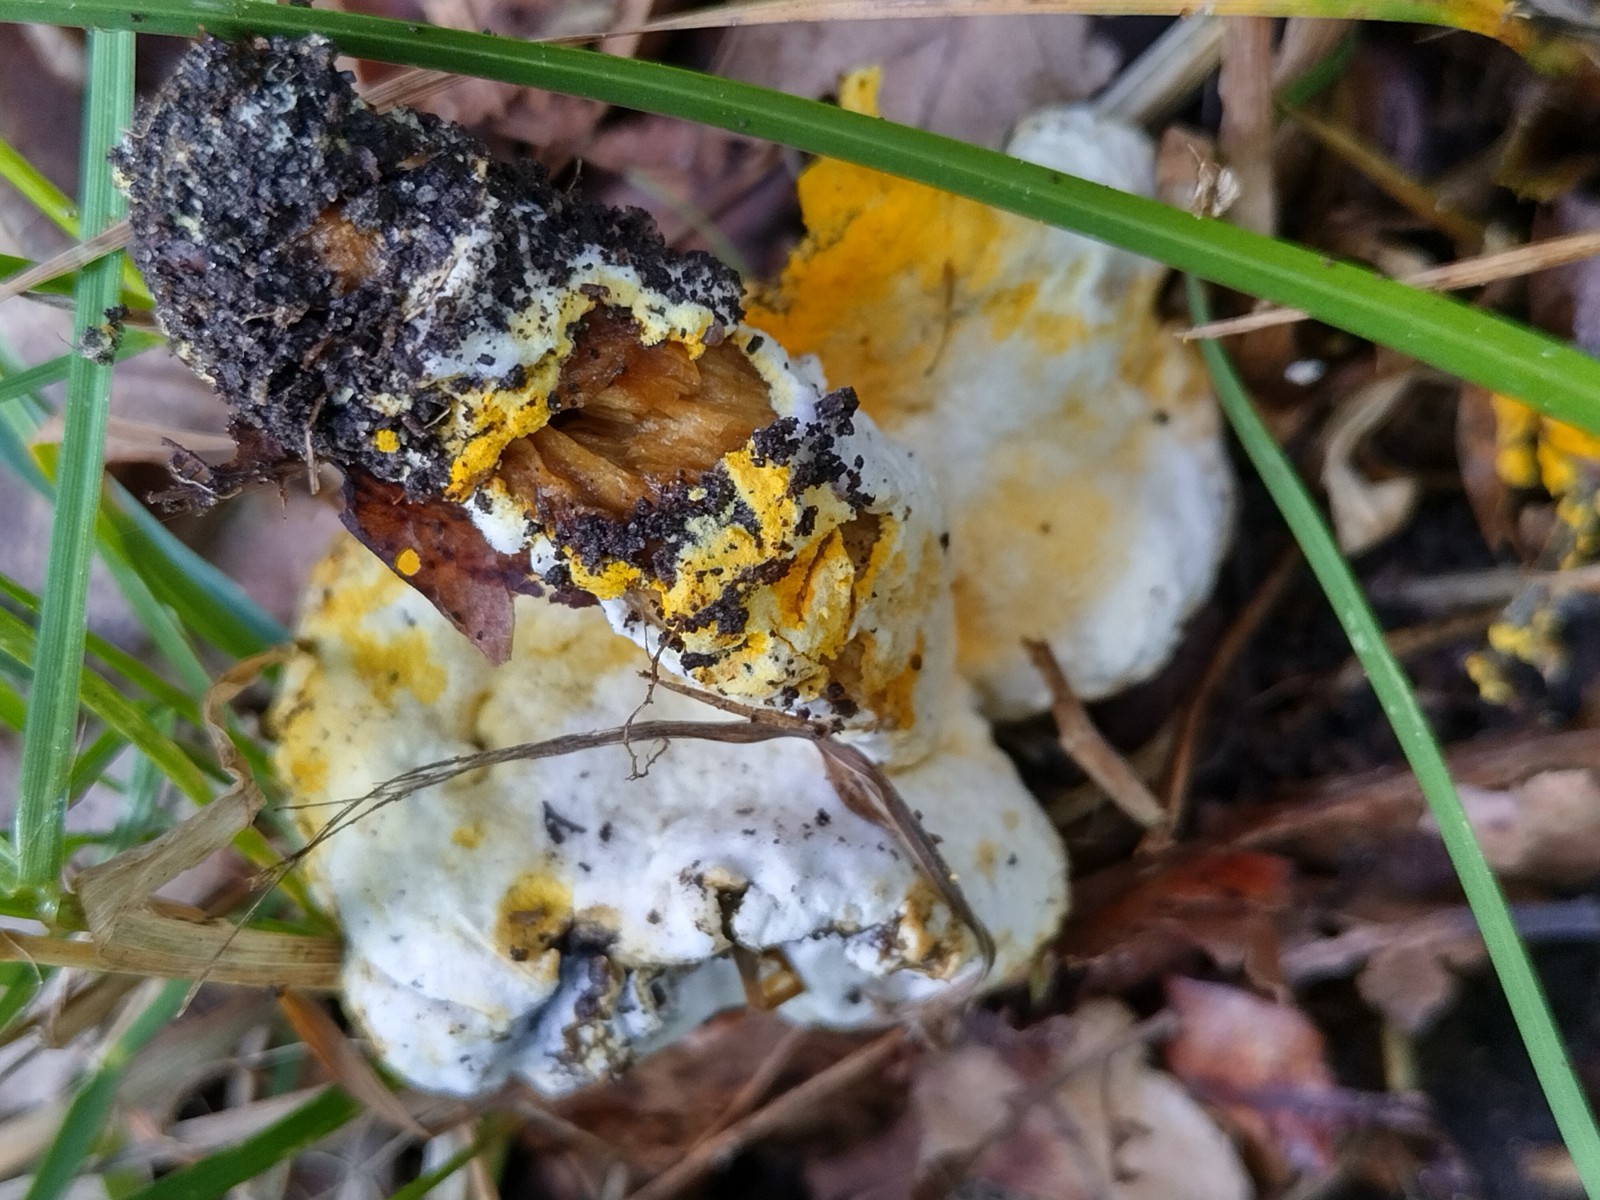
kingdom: Fungi
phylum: Ascomycota
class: Sordariomycetes
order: Hypocreales
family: Hypocreaceae
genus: Hypomyces
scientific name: Hypomyces microspermus
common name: dværgrørhat-snylteskorpe
